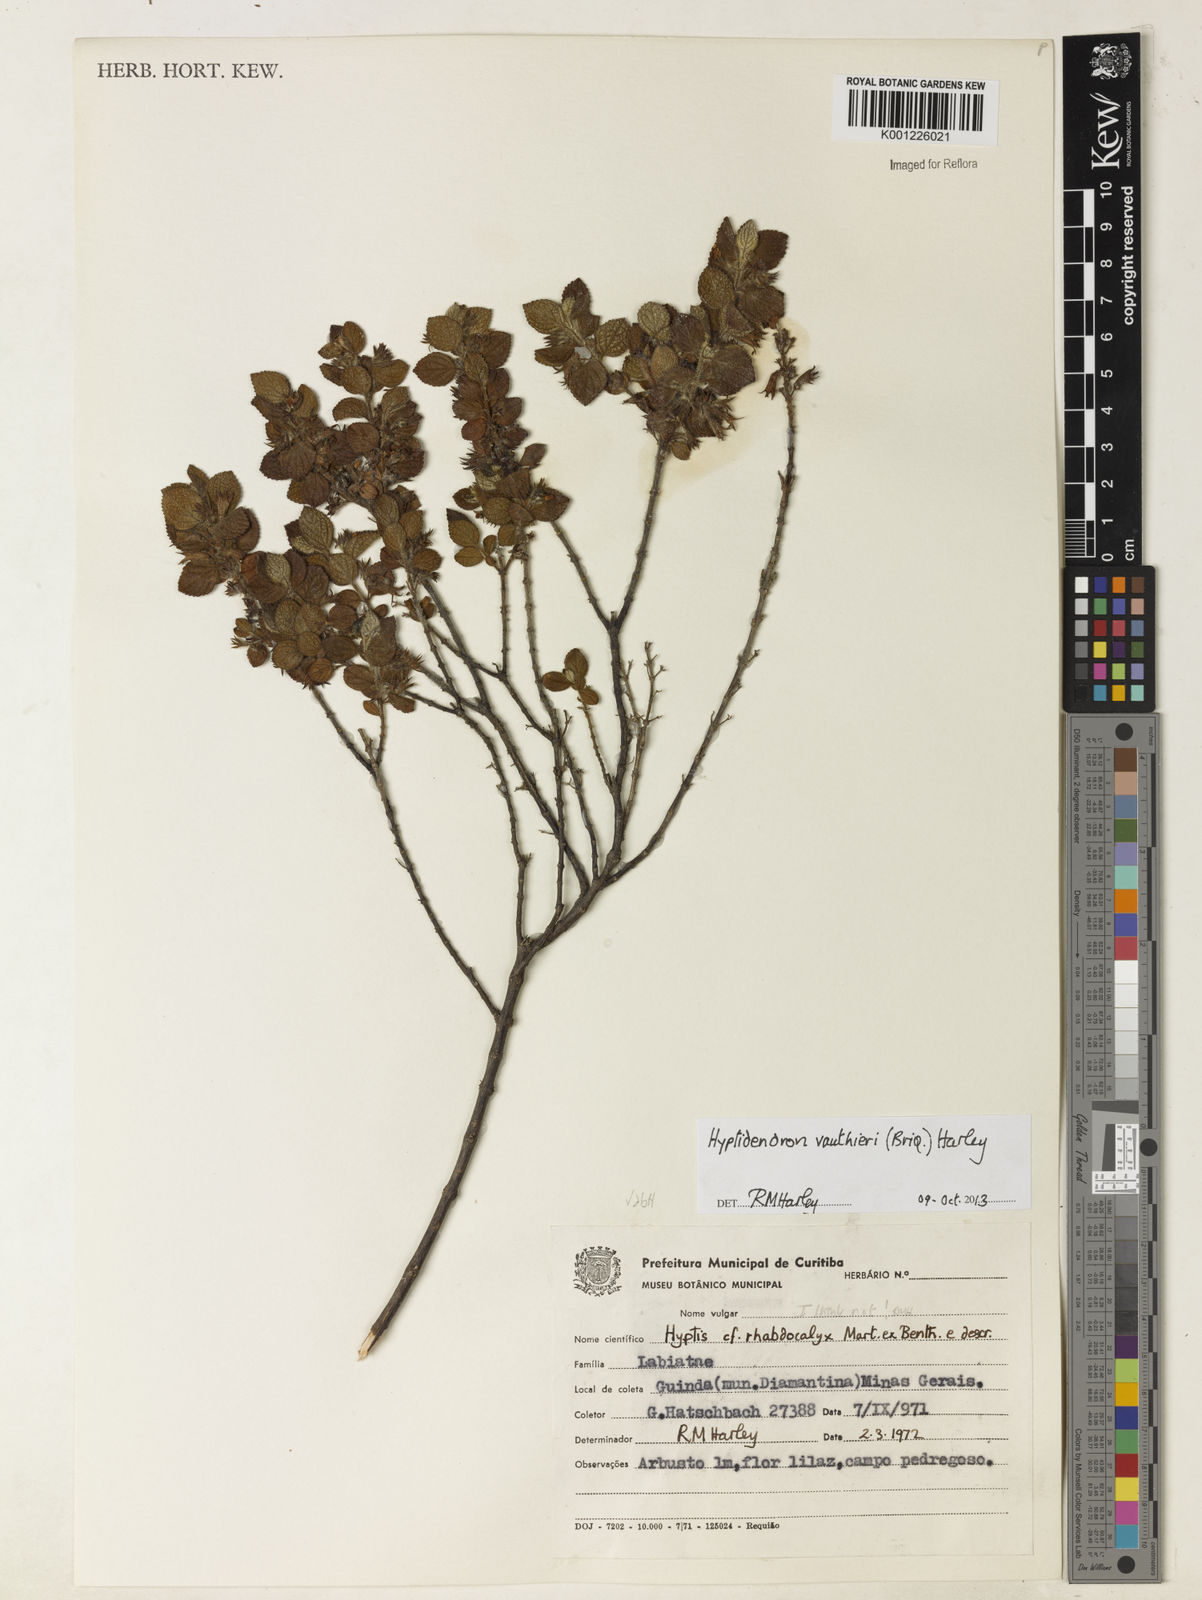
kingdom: Plantae
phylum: Tracheophyta
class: Magnoliopsida
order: Lamiales
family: Lamiaceae
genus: Hyptidendron
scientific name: Hyptidendron vauthieri
